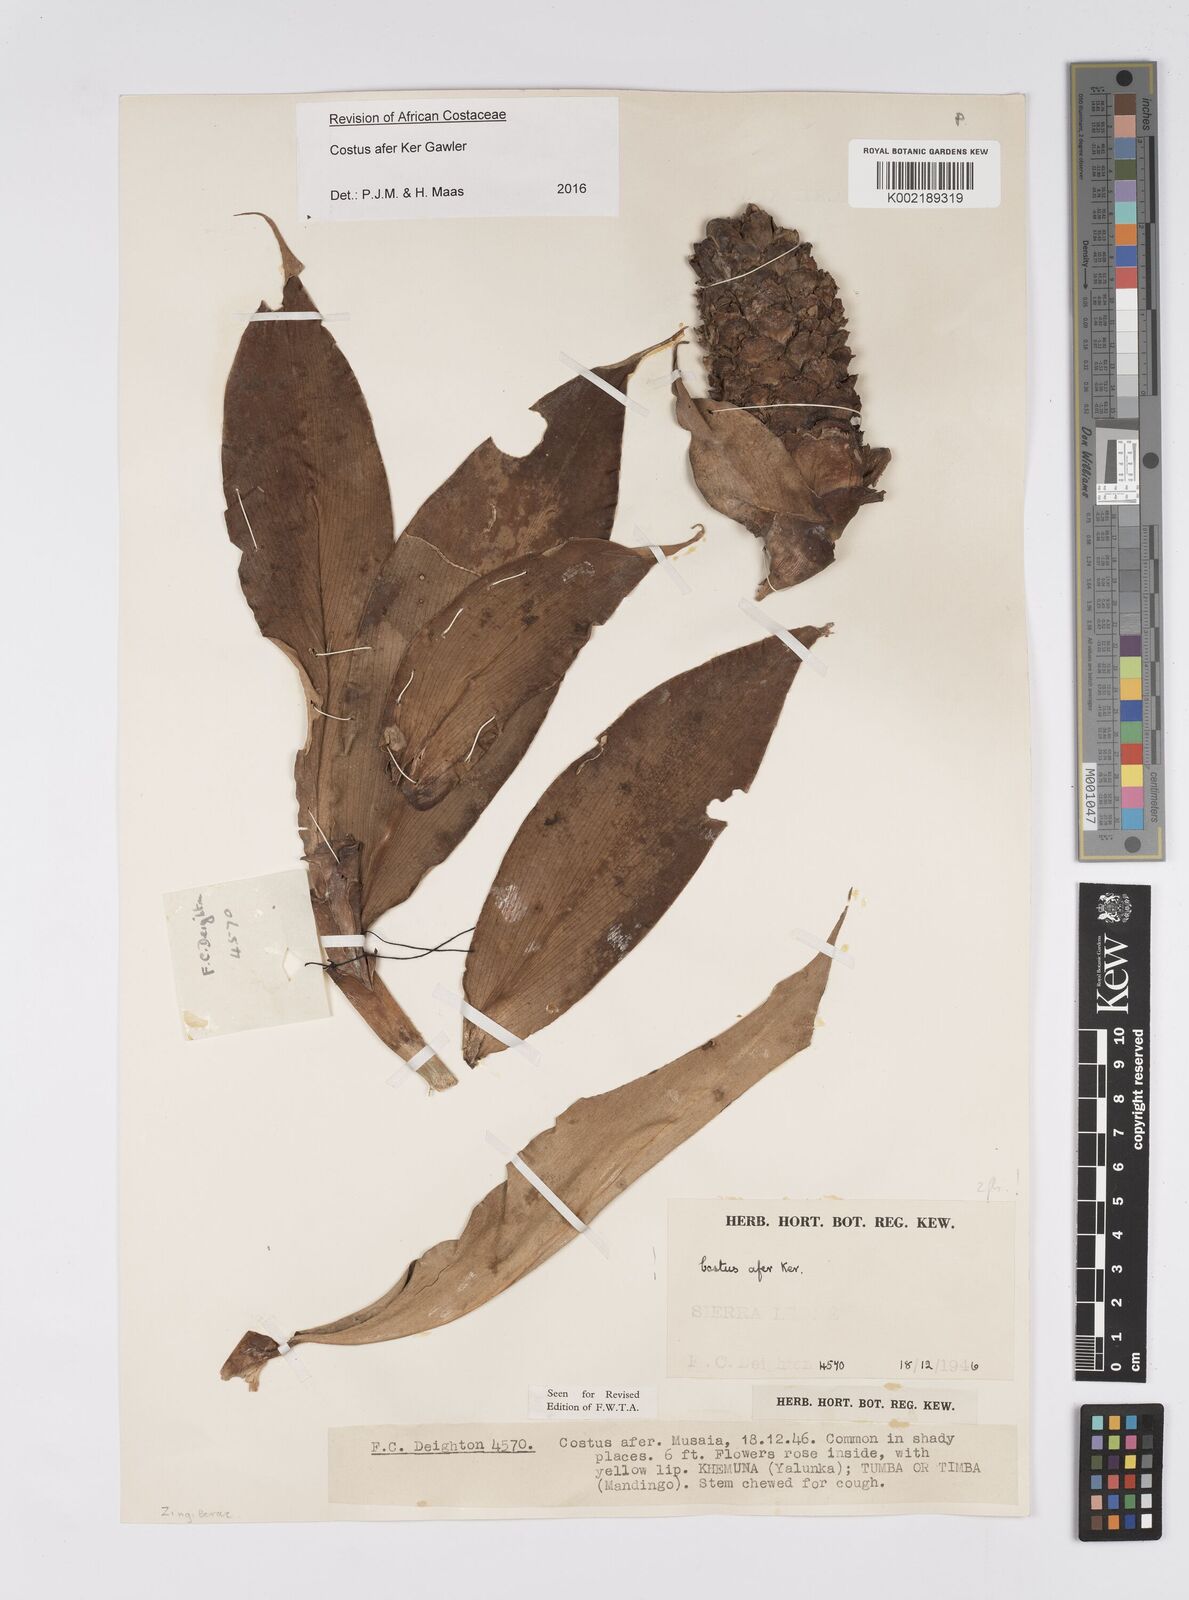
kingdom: Plantae
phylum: Tracheophyta
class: Liliopsida
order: Zingiberales
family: Costaceae
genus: Costus
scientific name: Costus afer
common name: Spiral-ginger
